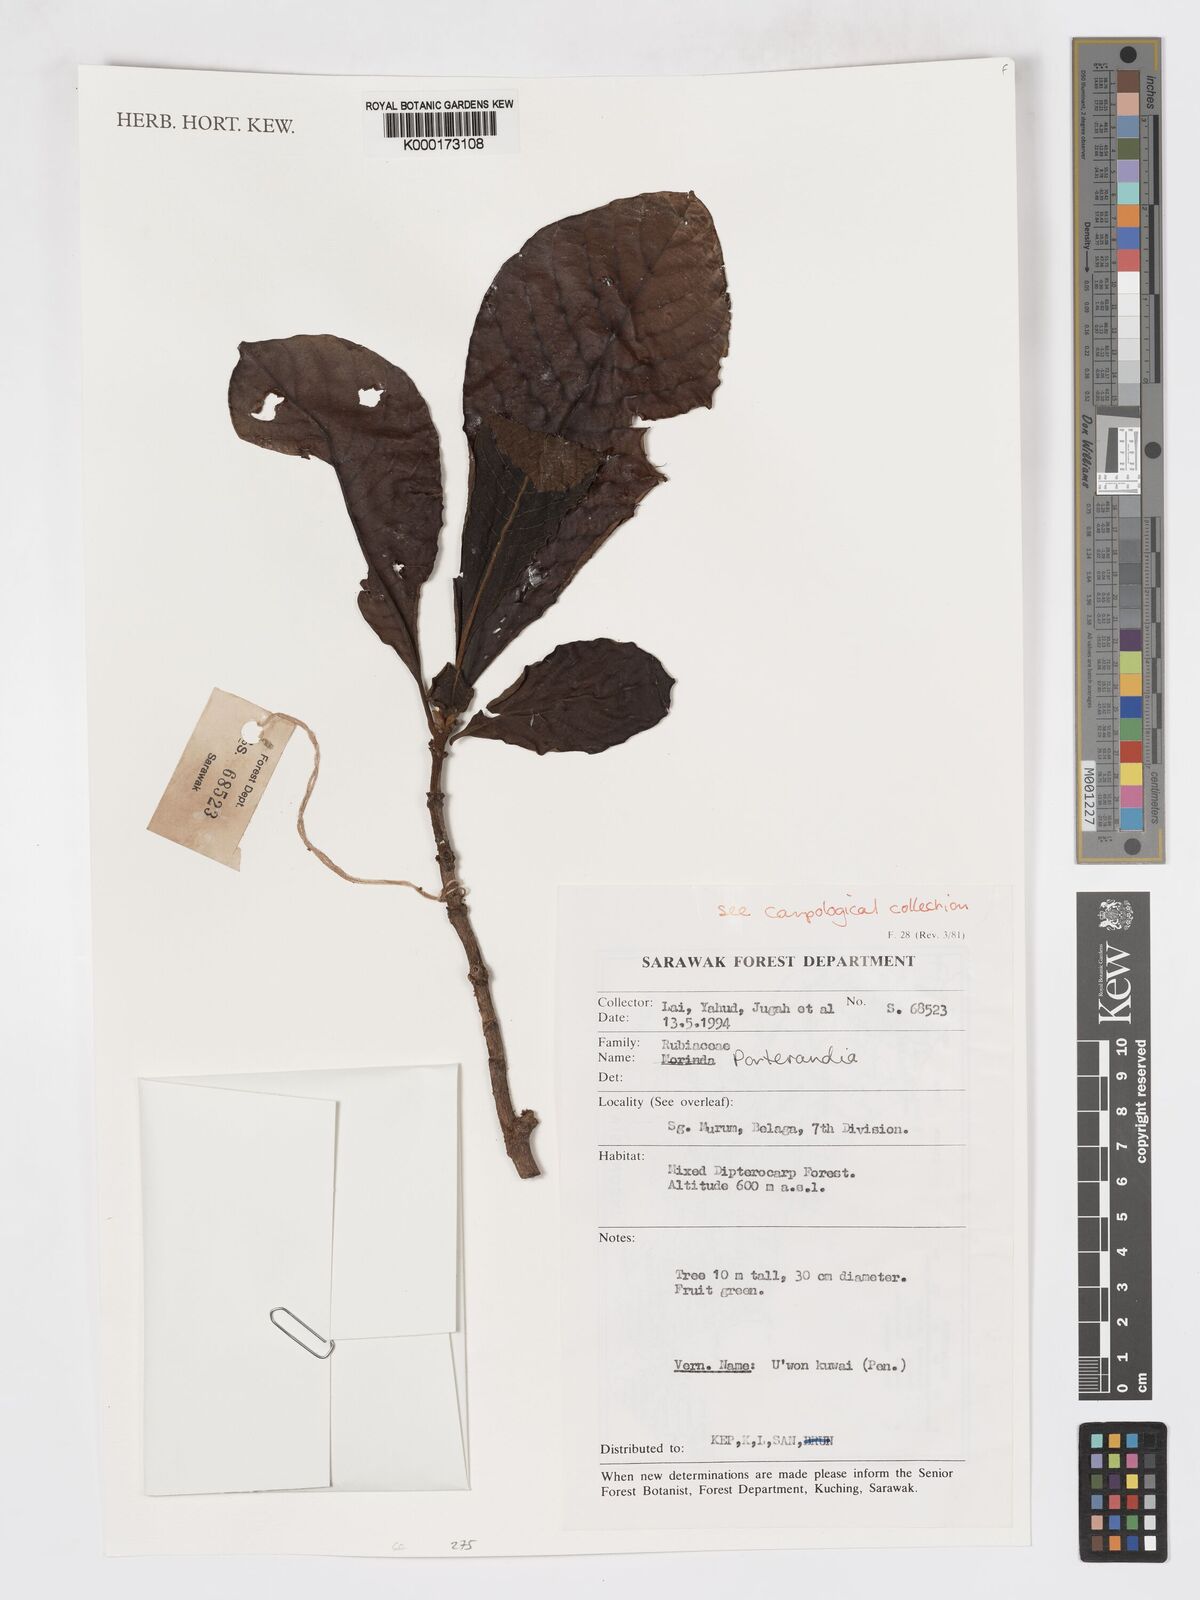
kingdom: Plantae
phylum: Tracheophyta
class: Magnoliopsida
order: Gentianales
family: Rubiaceae
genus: Porterandia
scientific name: Porterandia
